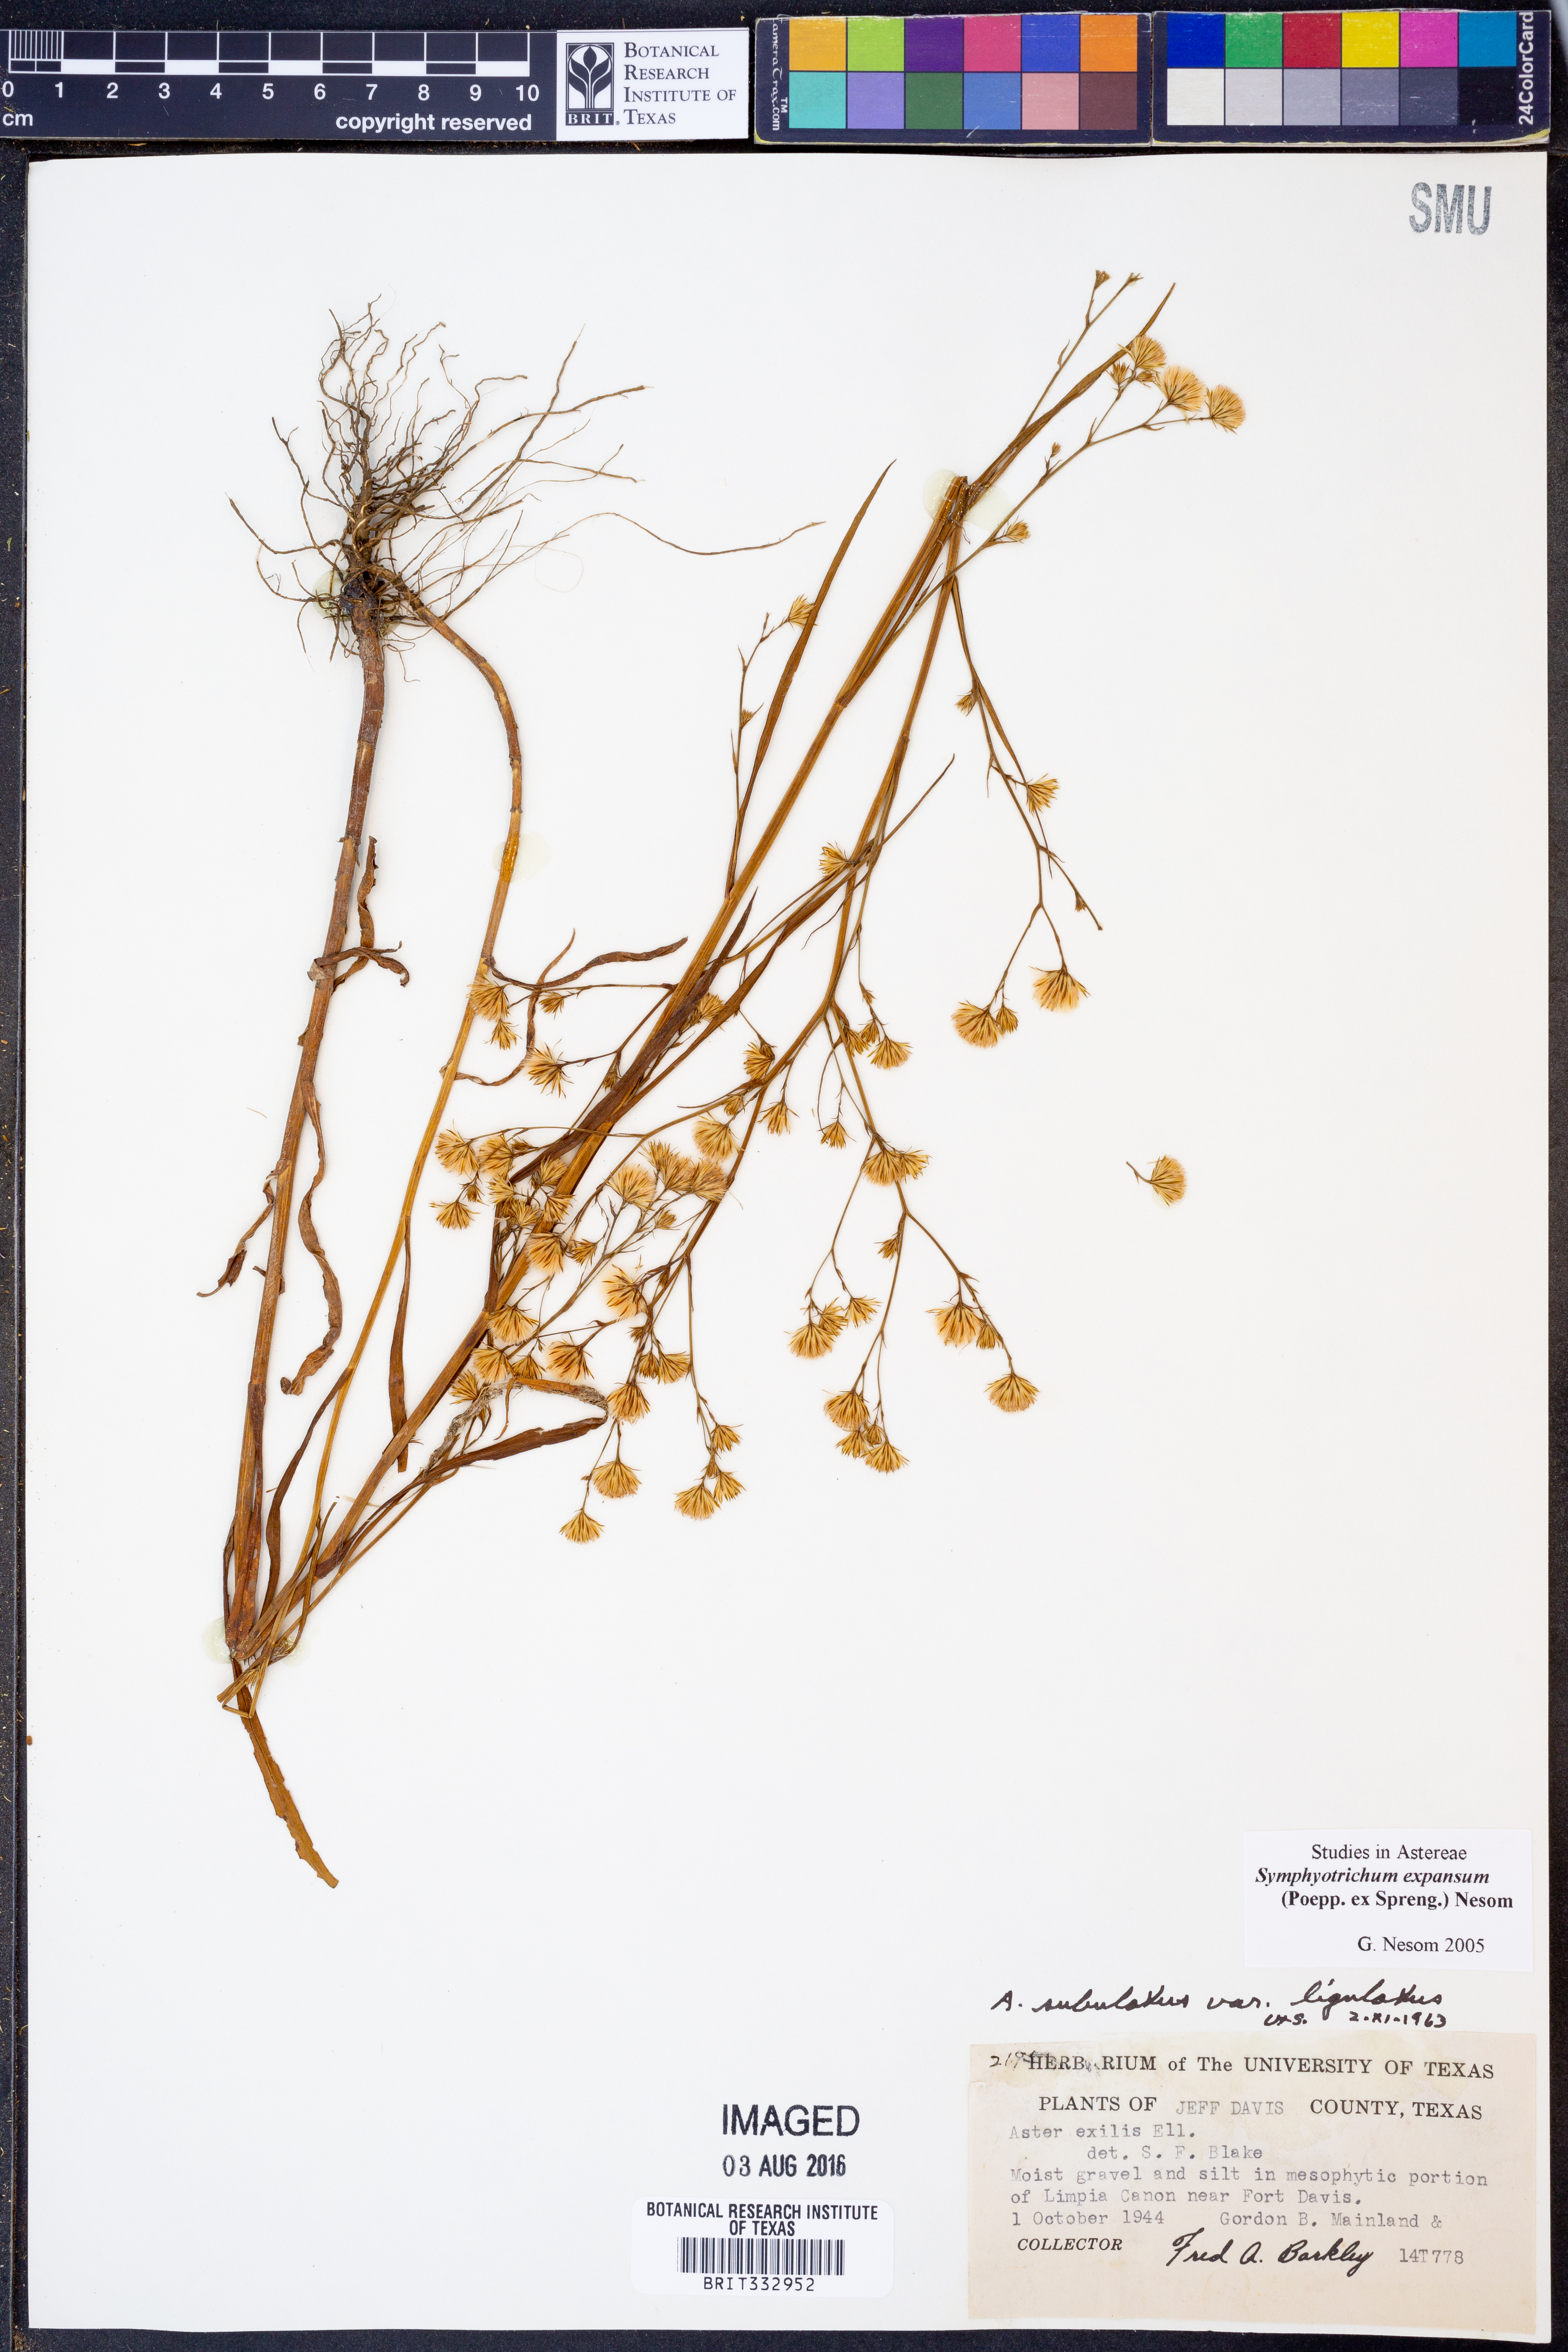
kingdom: Plantae
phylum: Tracheophyta
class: Magnoliopsida
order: Asterales
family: Asteraceae
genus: Symphyotrichum
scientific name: Symphyotrichum expansum
